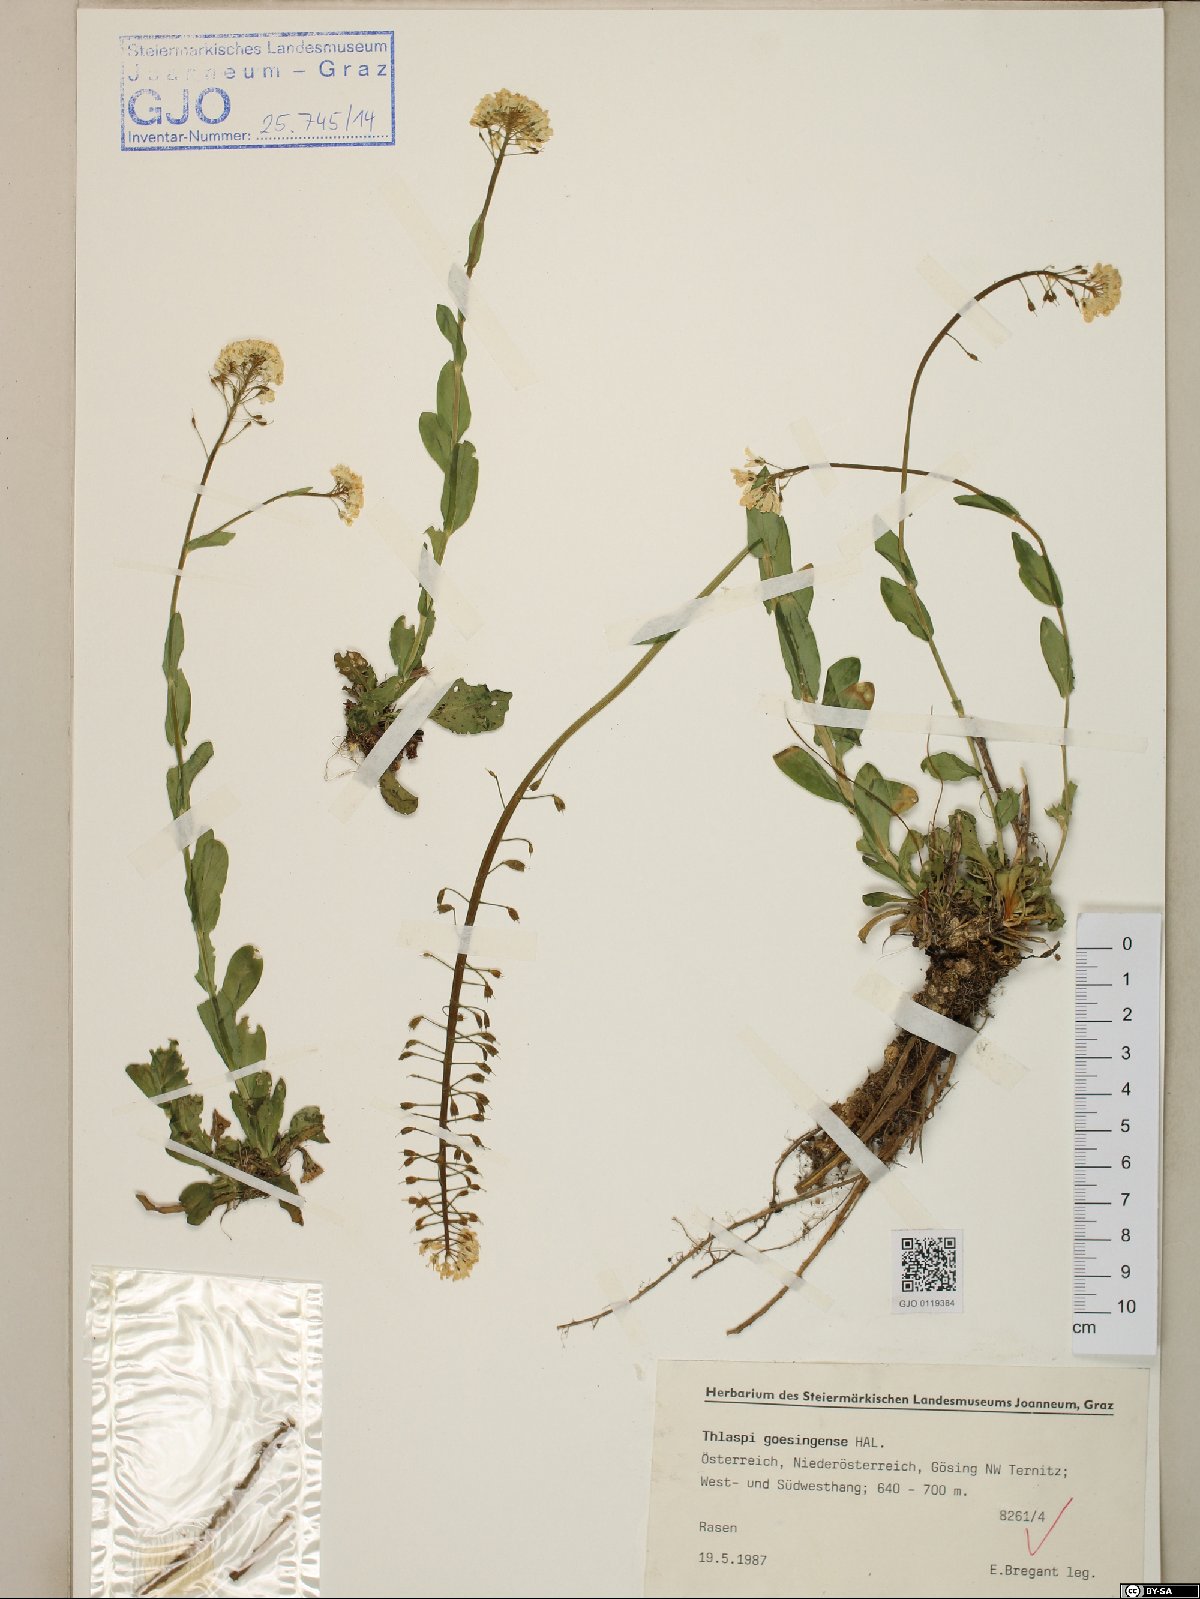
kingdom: Plantae
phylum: Tracheophyta
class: Magnoliopsida
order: Brassicales
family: Brassicaceae
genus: Noccaea
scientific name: Noccaea goesingensis
